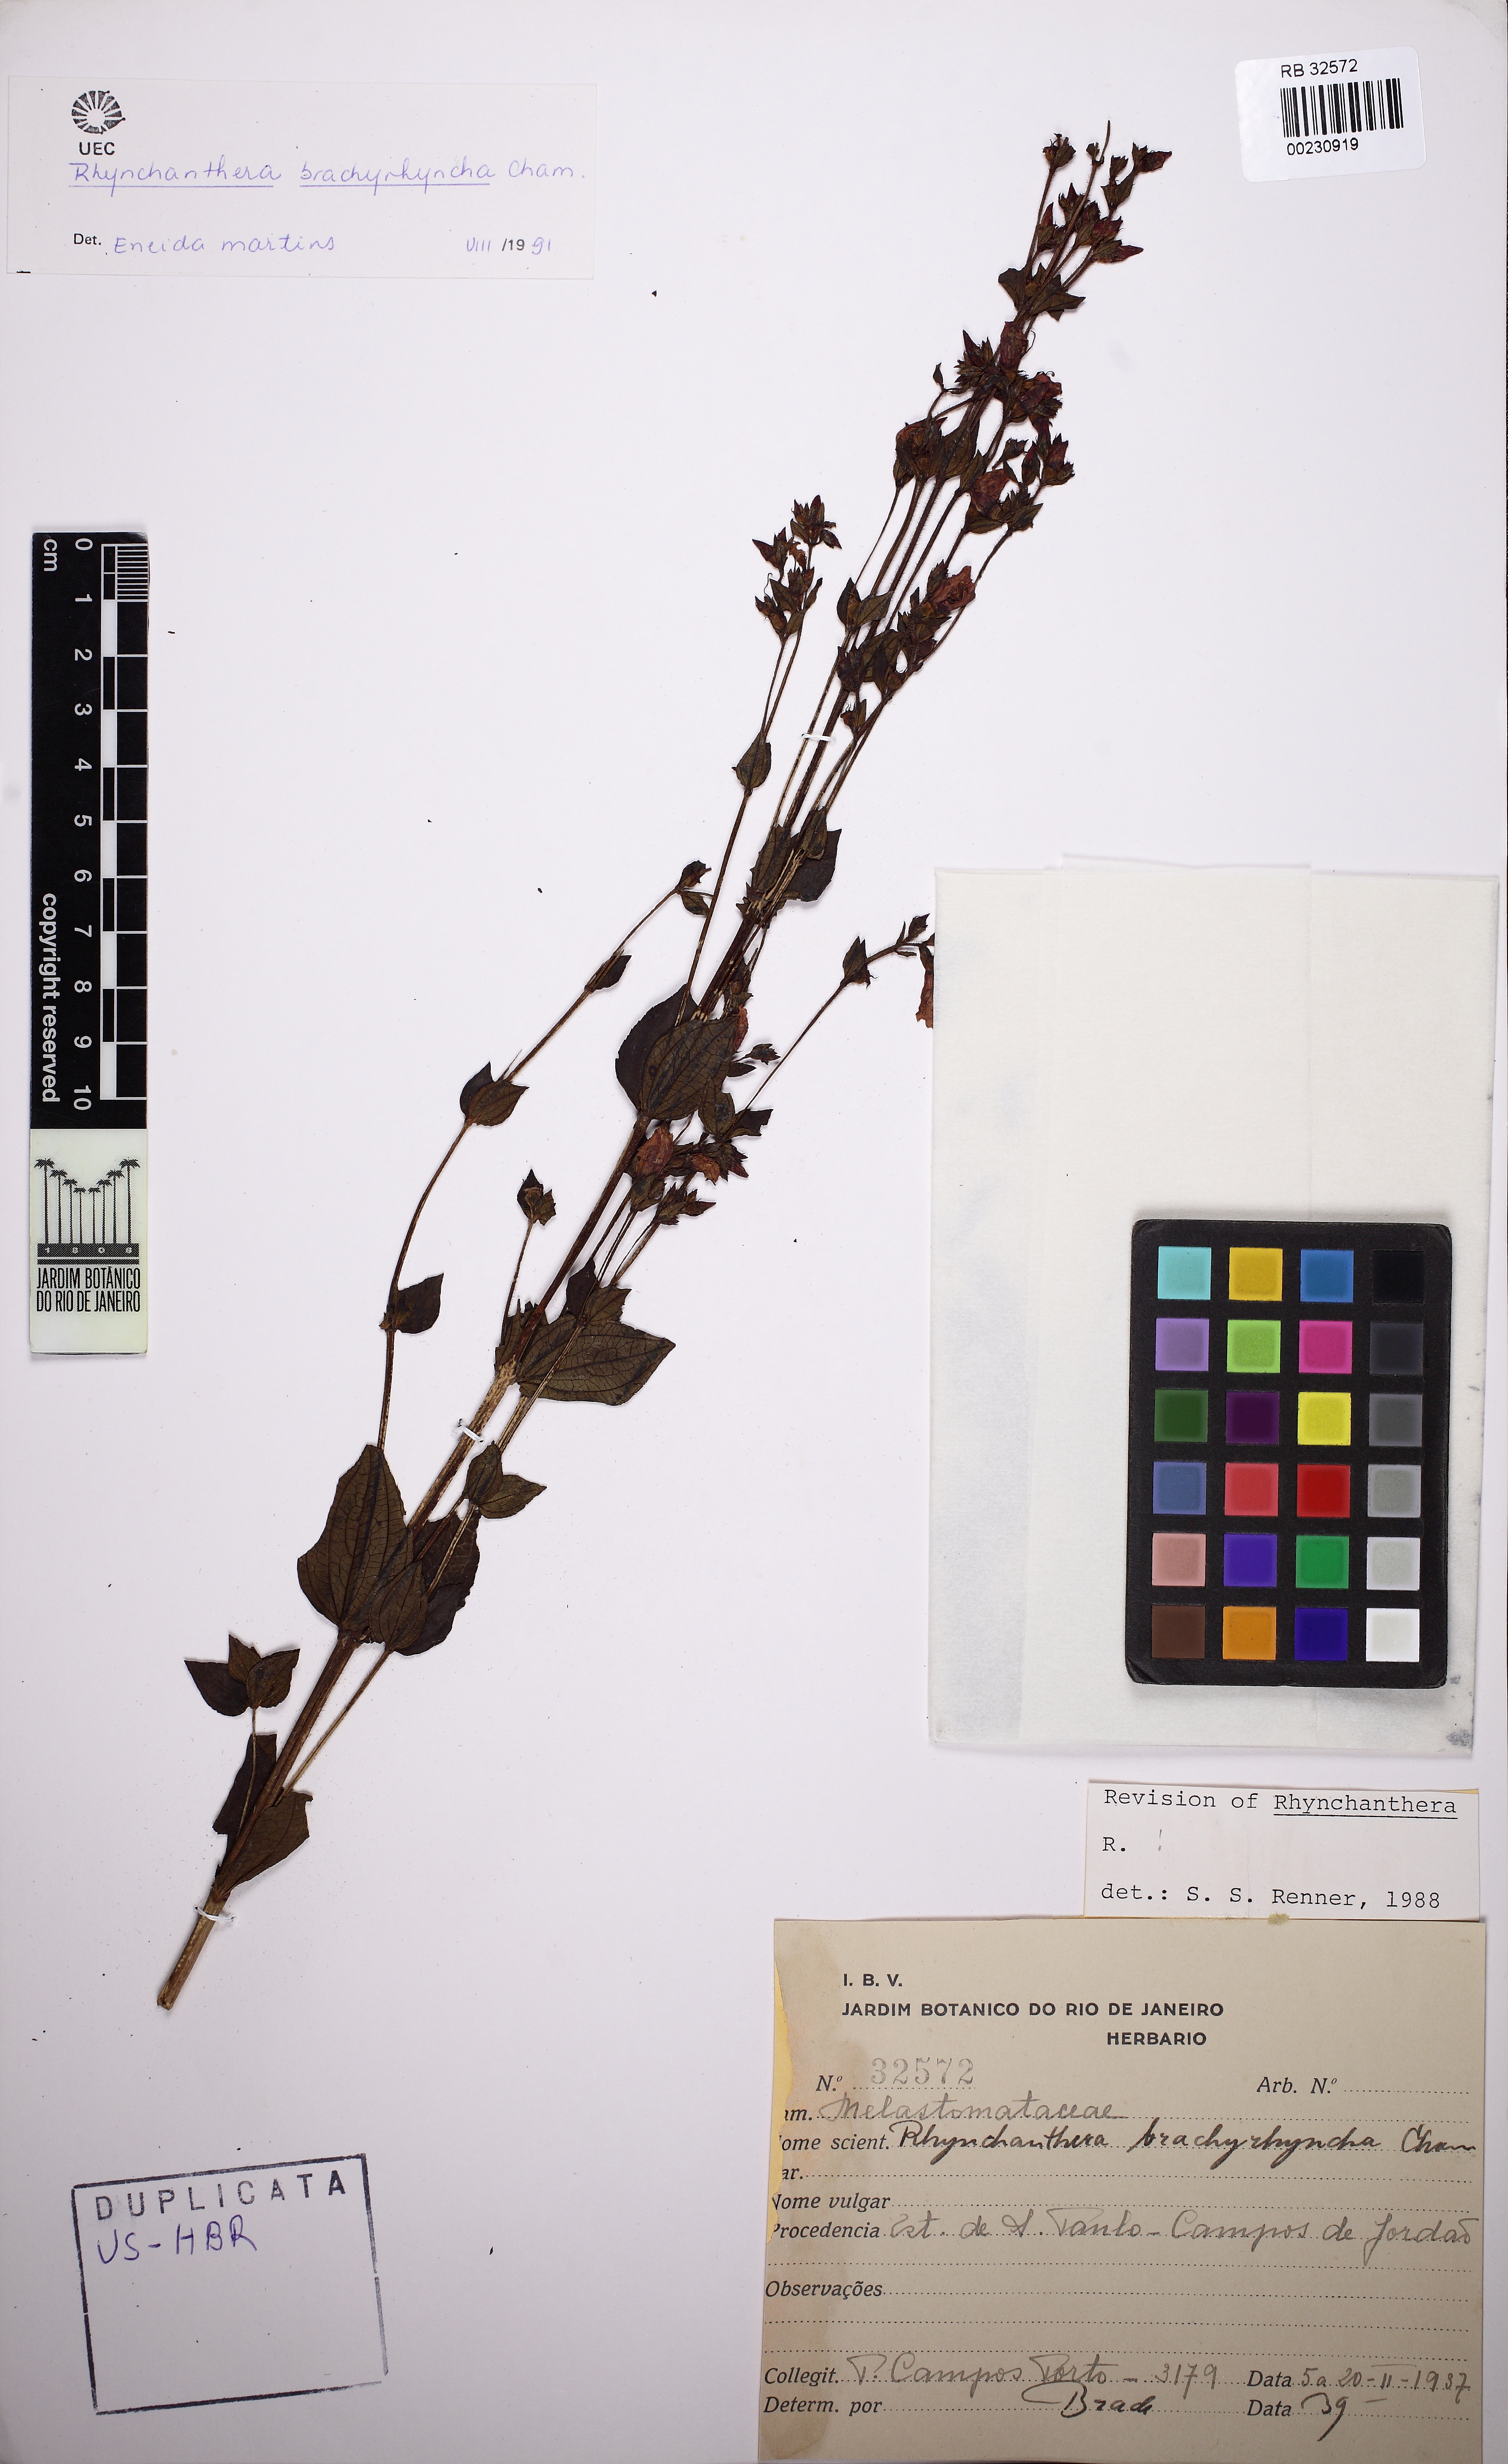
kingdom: Plantae
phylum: Tracheophyta
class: Magnoliopsida
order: Myrtales
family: Melastomataceae
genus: Rhynchanthera
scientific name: Rhynchanthera brachyrhyncha
